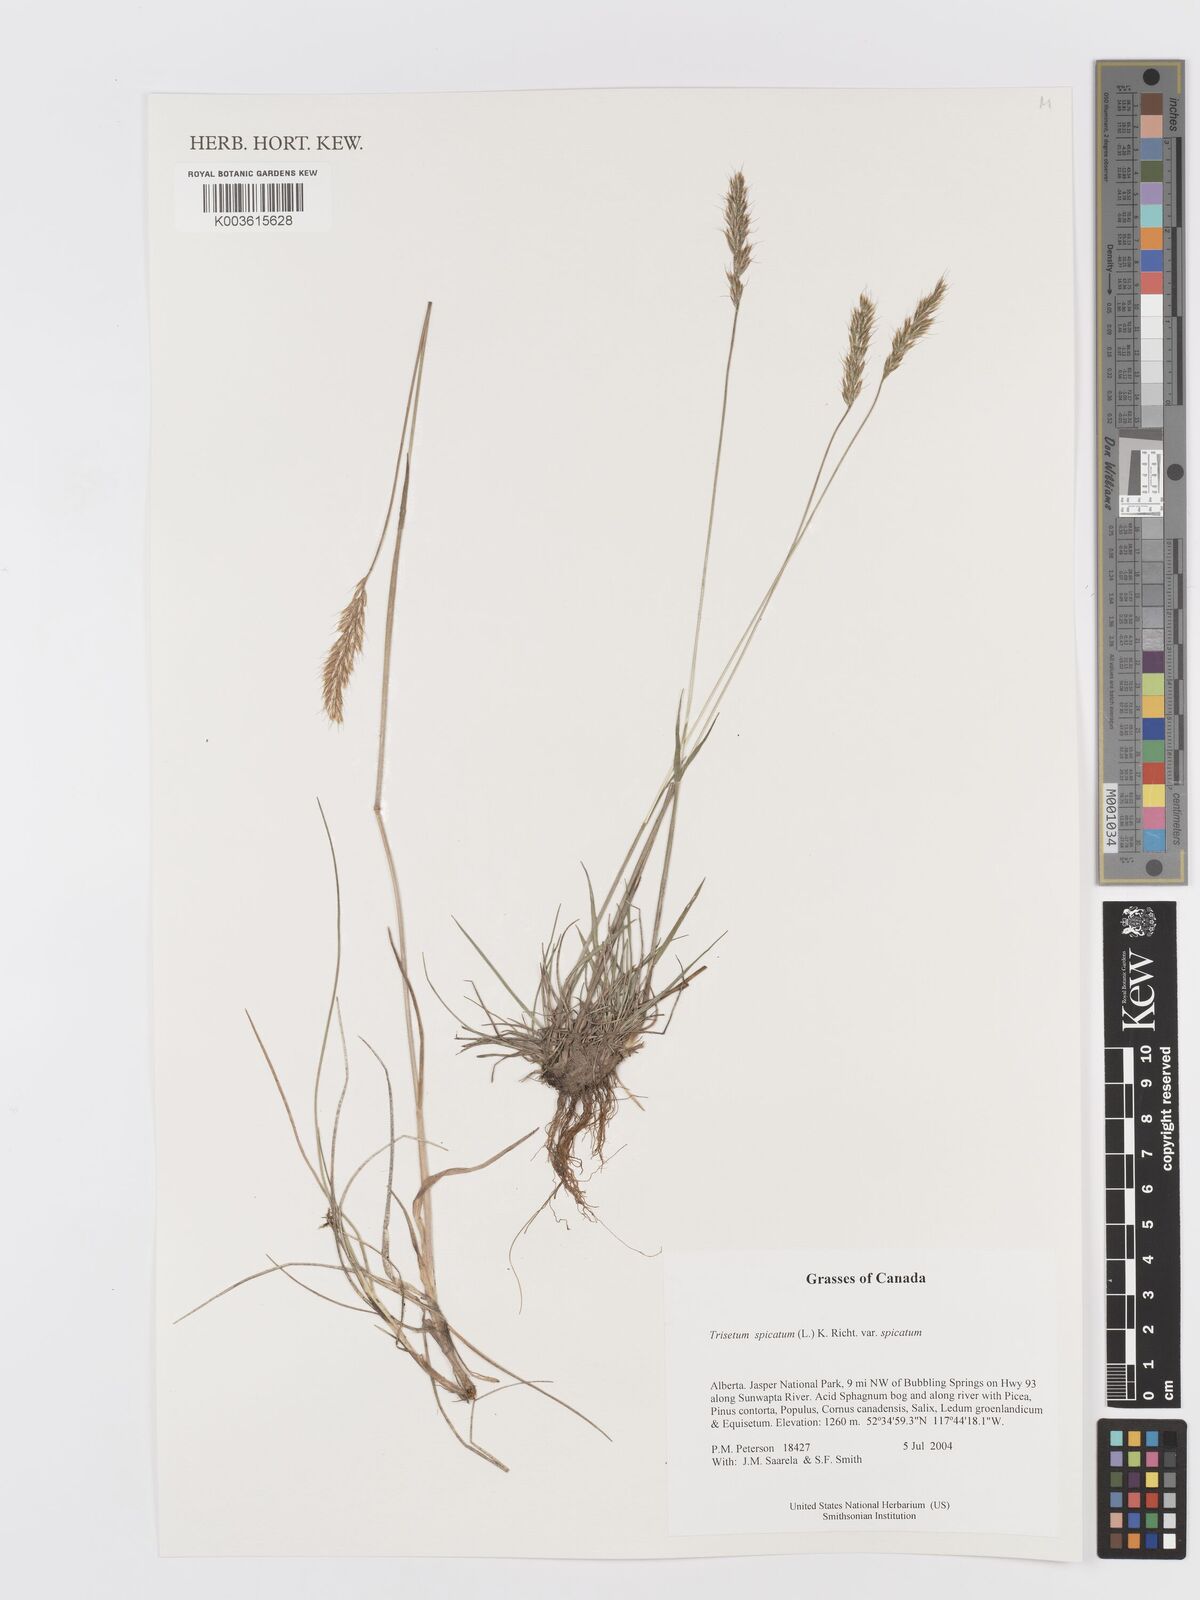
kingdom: Plantae
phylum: Tracheophyta
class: Liliopsida
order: Poales
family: Poaceae
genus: Koeleria
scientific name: Koeleria spicata
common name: Mountain trisetum
